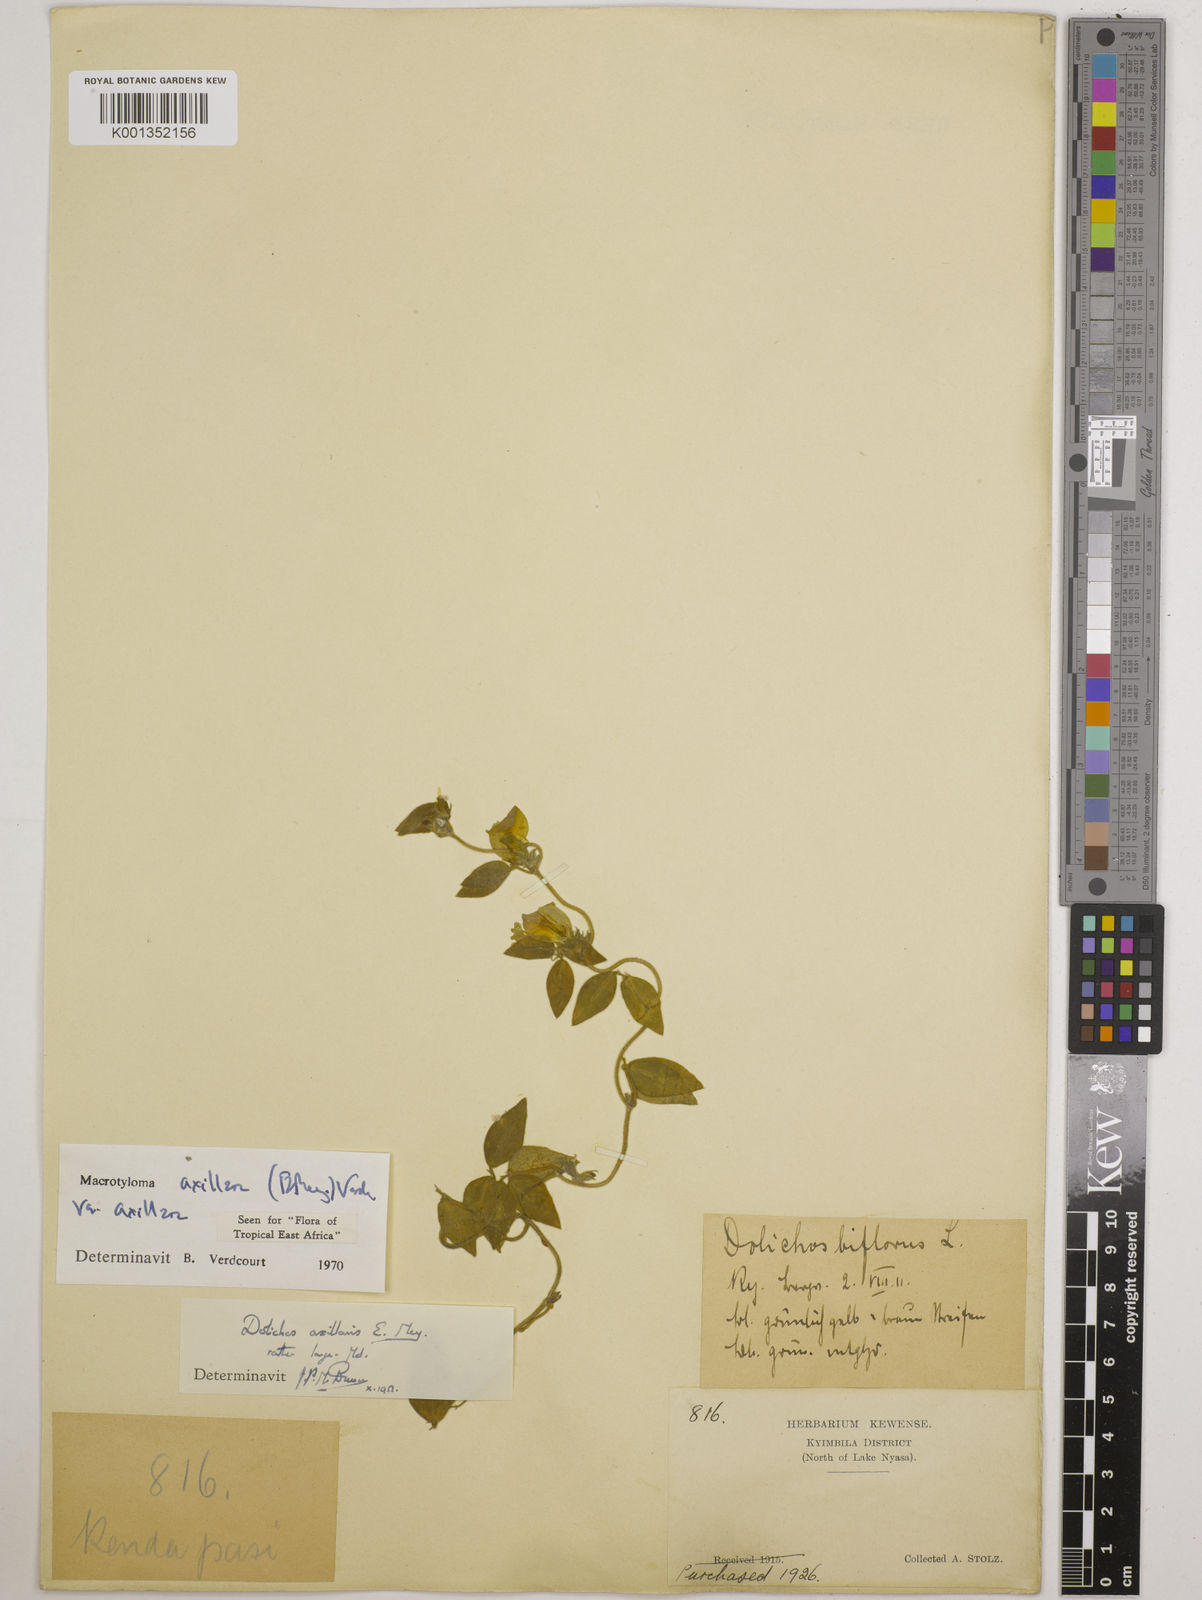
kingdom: Plantae
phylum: Tracheophyta
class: Magnoliopsida
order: Fabales
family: Fabaceae
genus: Macrotyloma
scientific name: Macrotyloma axillare
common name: Perennial horsegram
